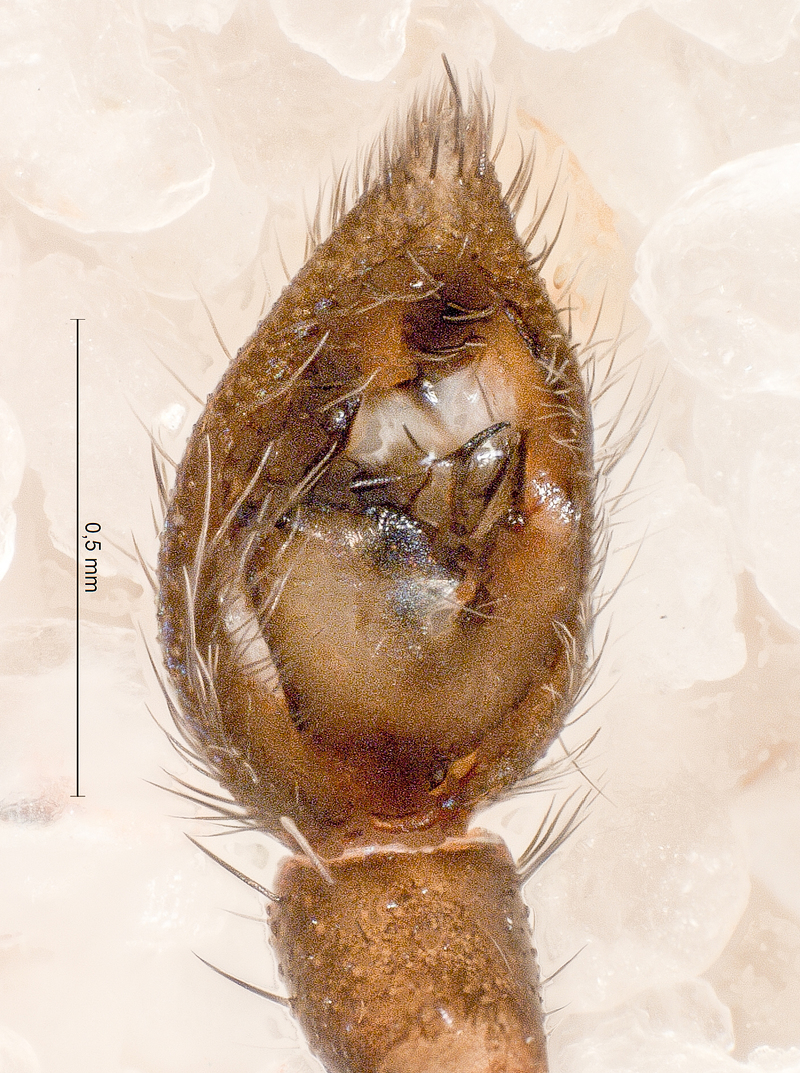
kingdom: Animalia
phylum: Arthropoda
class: Arachnida
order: Araneae
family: Lycosidae
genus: Aulonia
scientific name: Aulonia albimana
